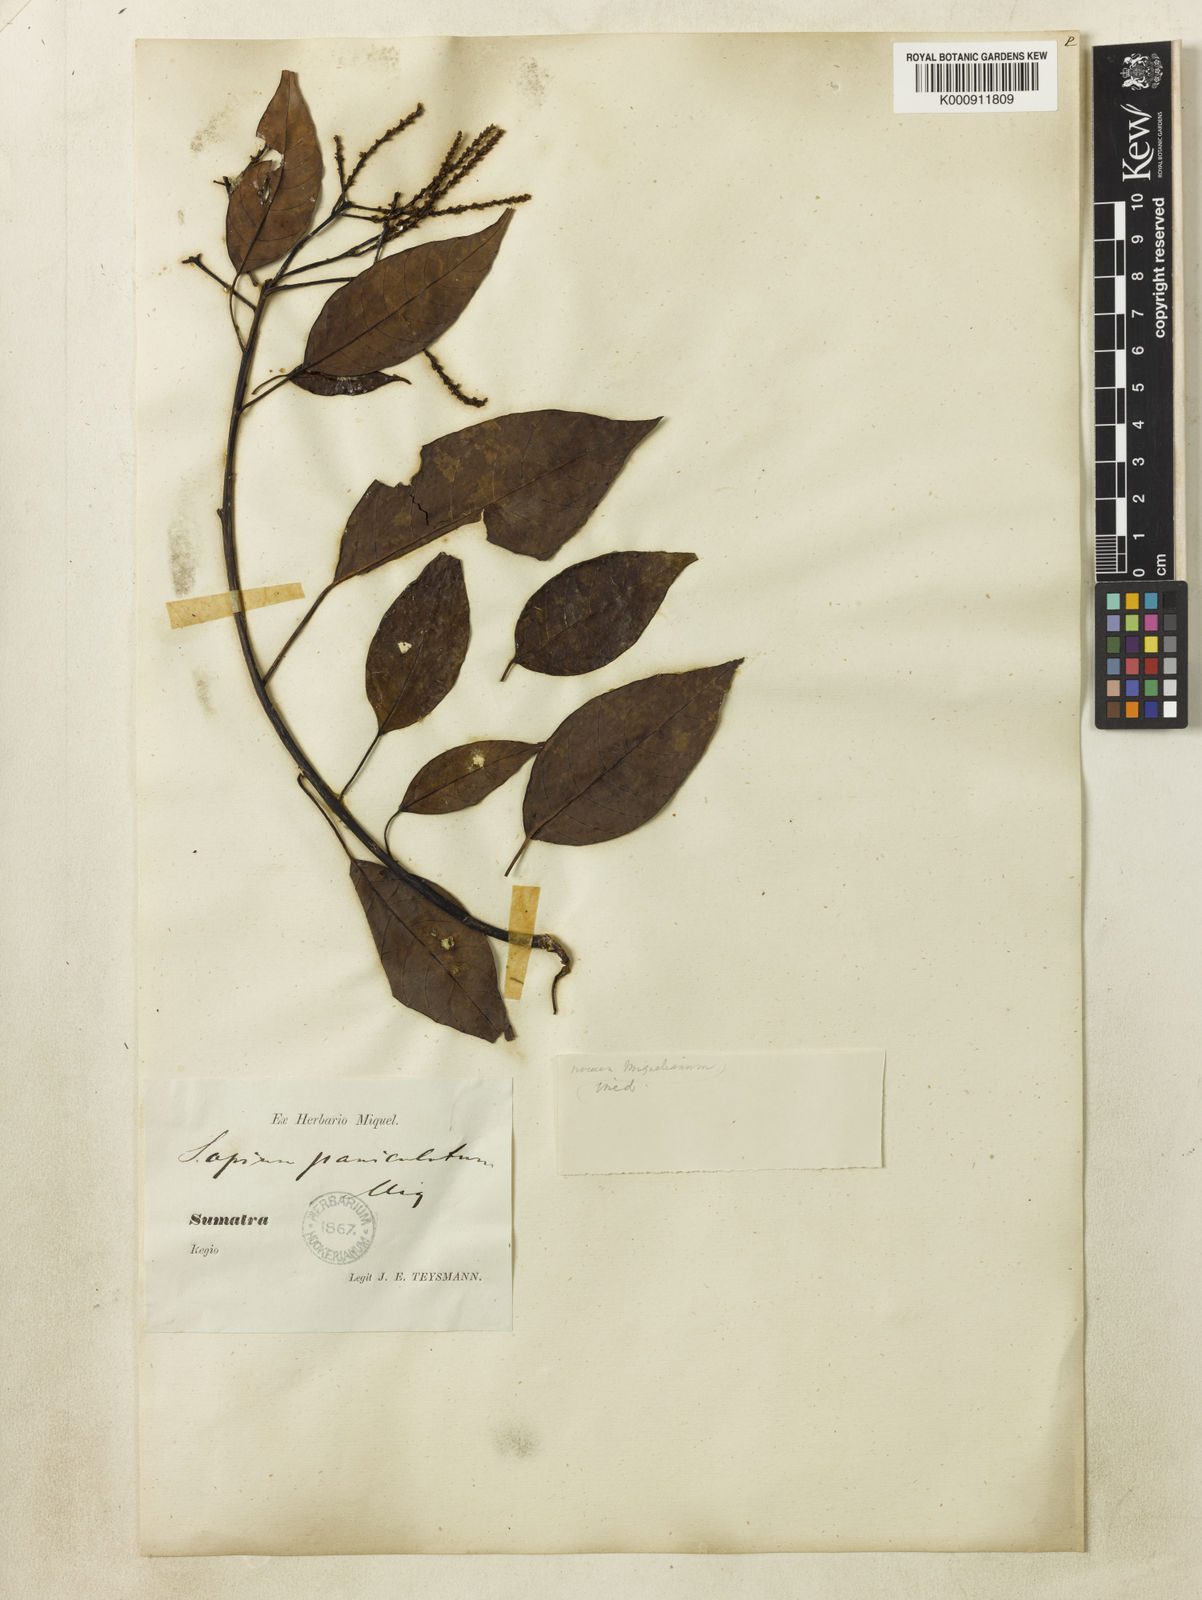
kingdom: Plantae
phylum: Tracheophyta
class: Magnoliopsida
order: Malpighiales
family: Euphorbiaceae
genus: Balakata
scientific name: Balakata baccata
